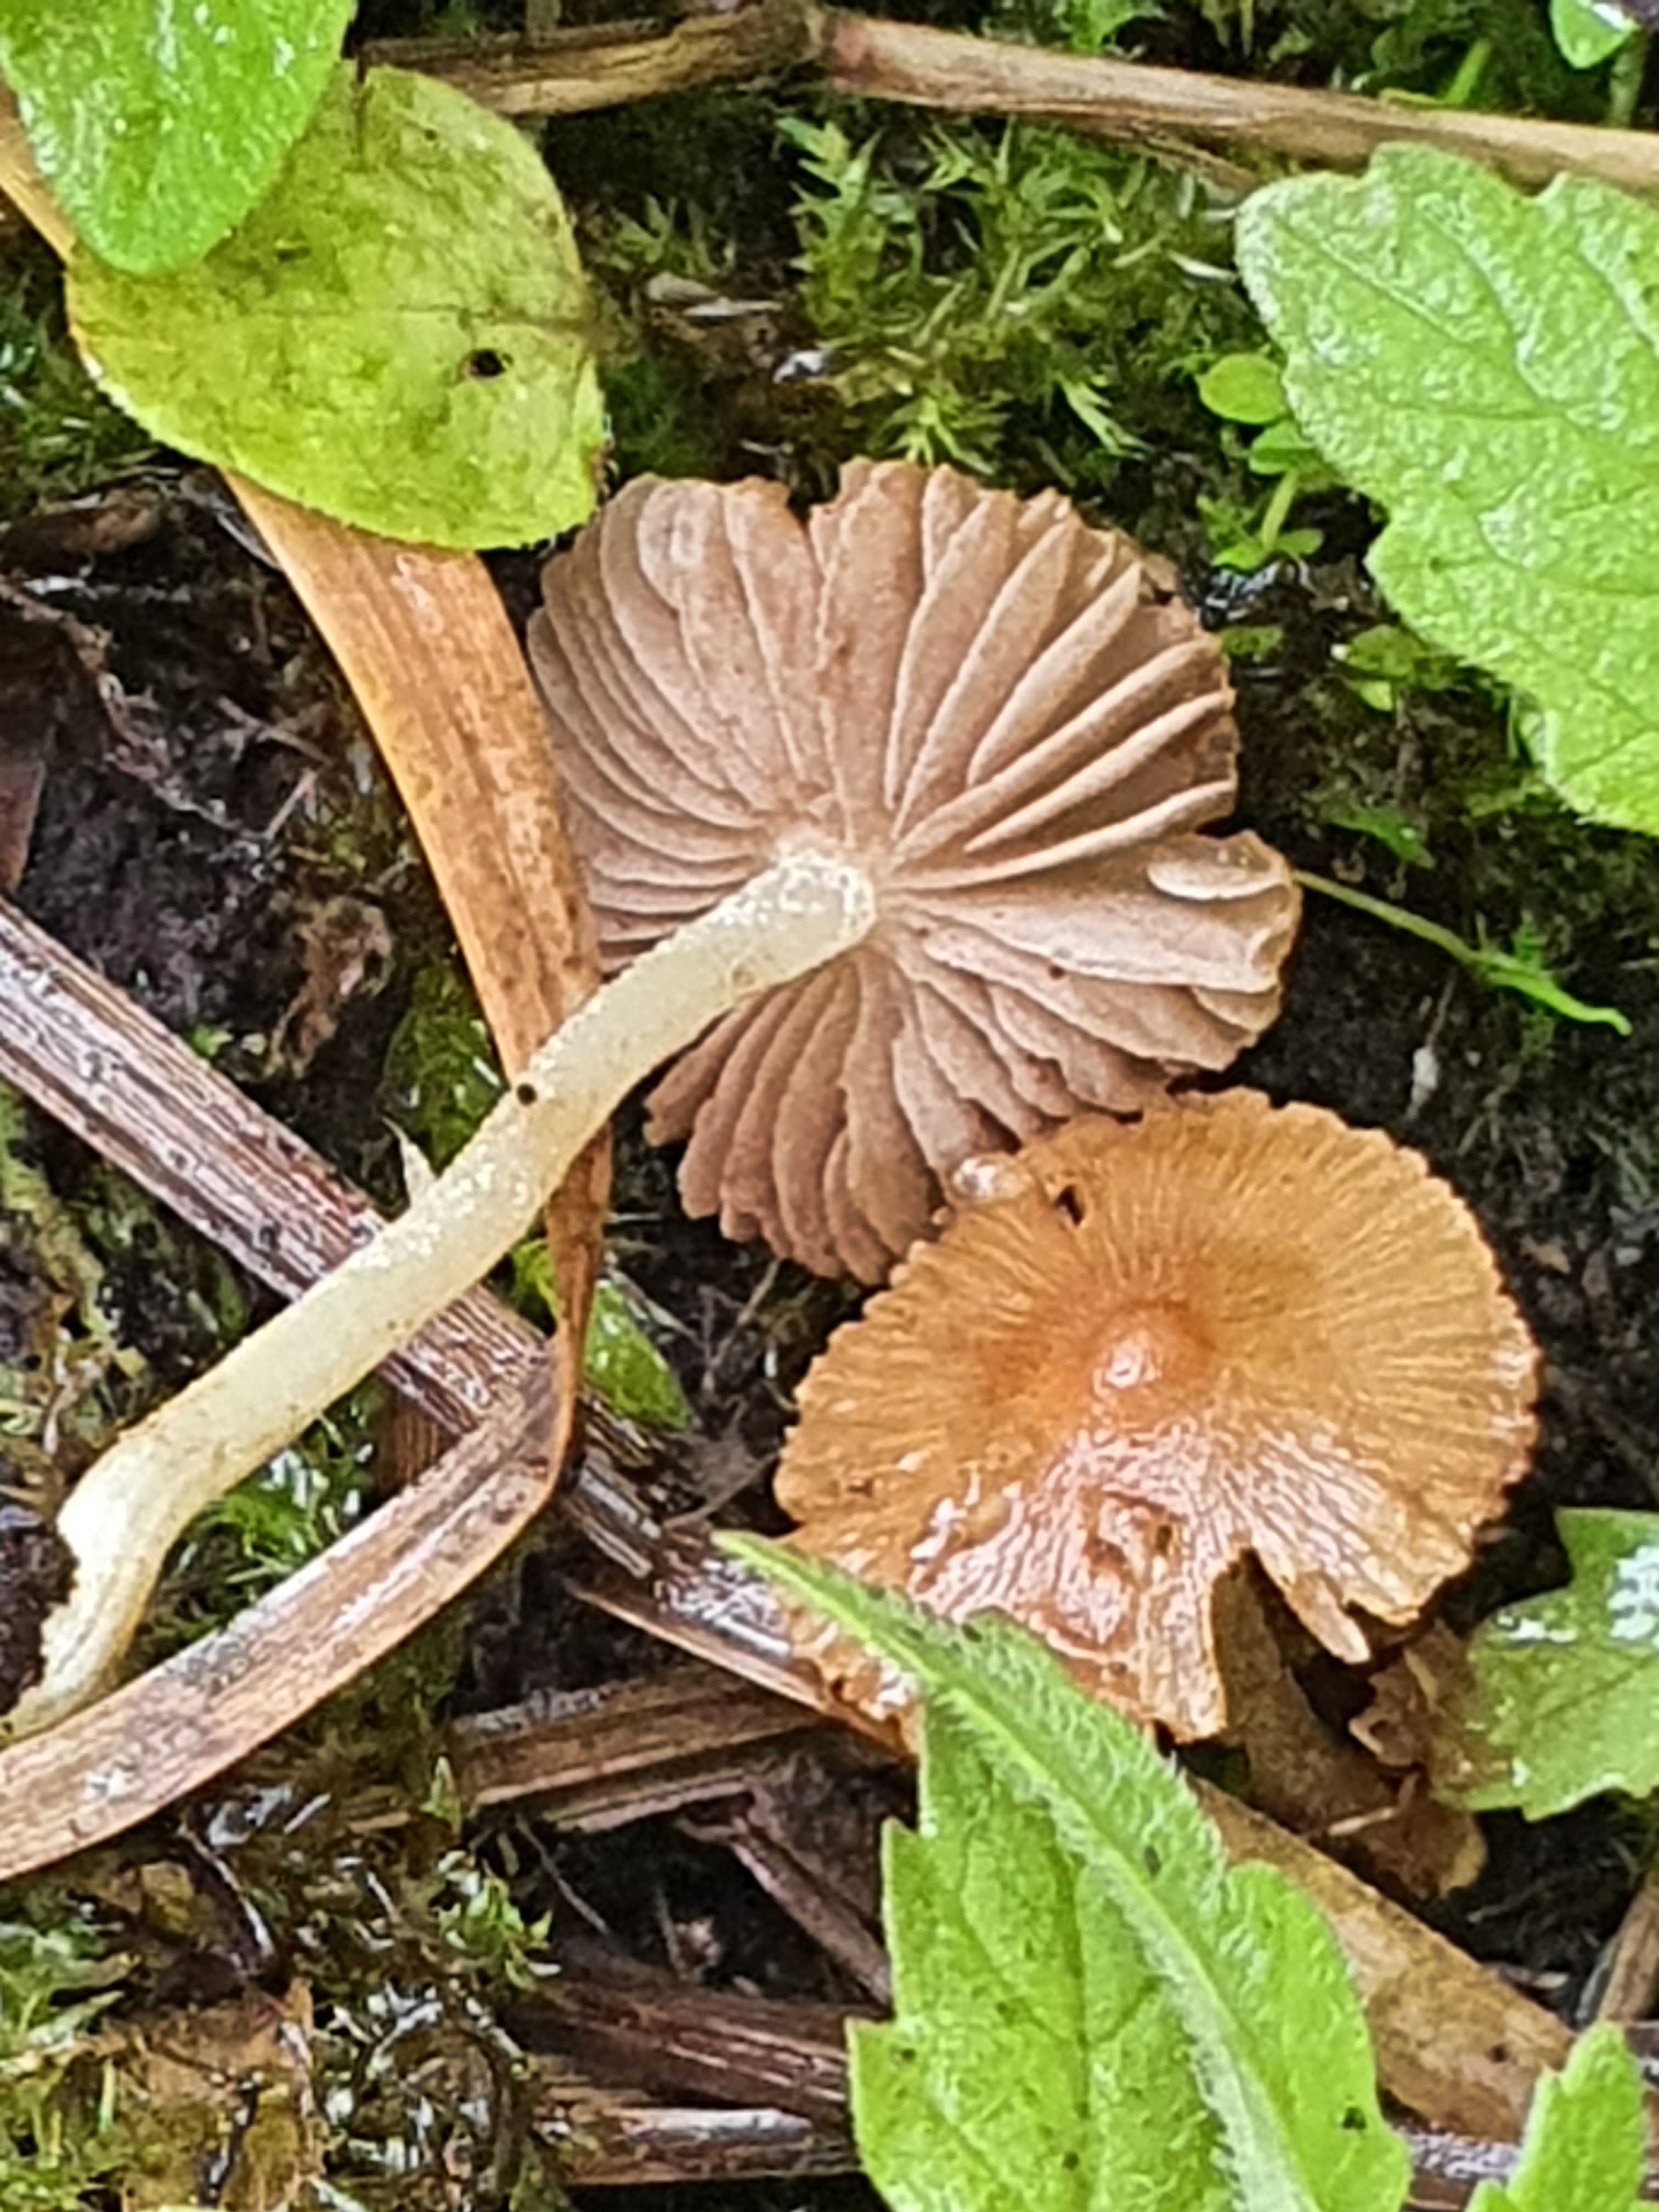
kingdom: Fungi
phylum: Basidiomycota
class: Agaricomycetes
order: Agaricales
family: Inocybaceae
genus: Inocybe
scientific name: Inocybe salicis
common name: pile-trævlhat
